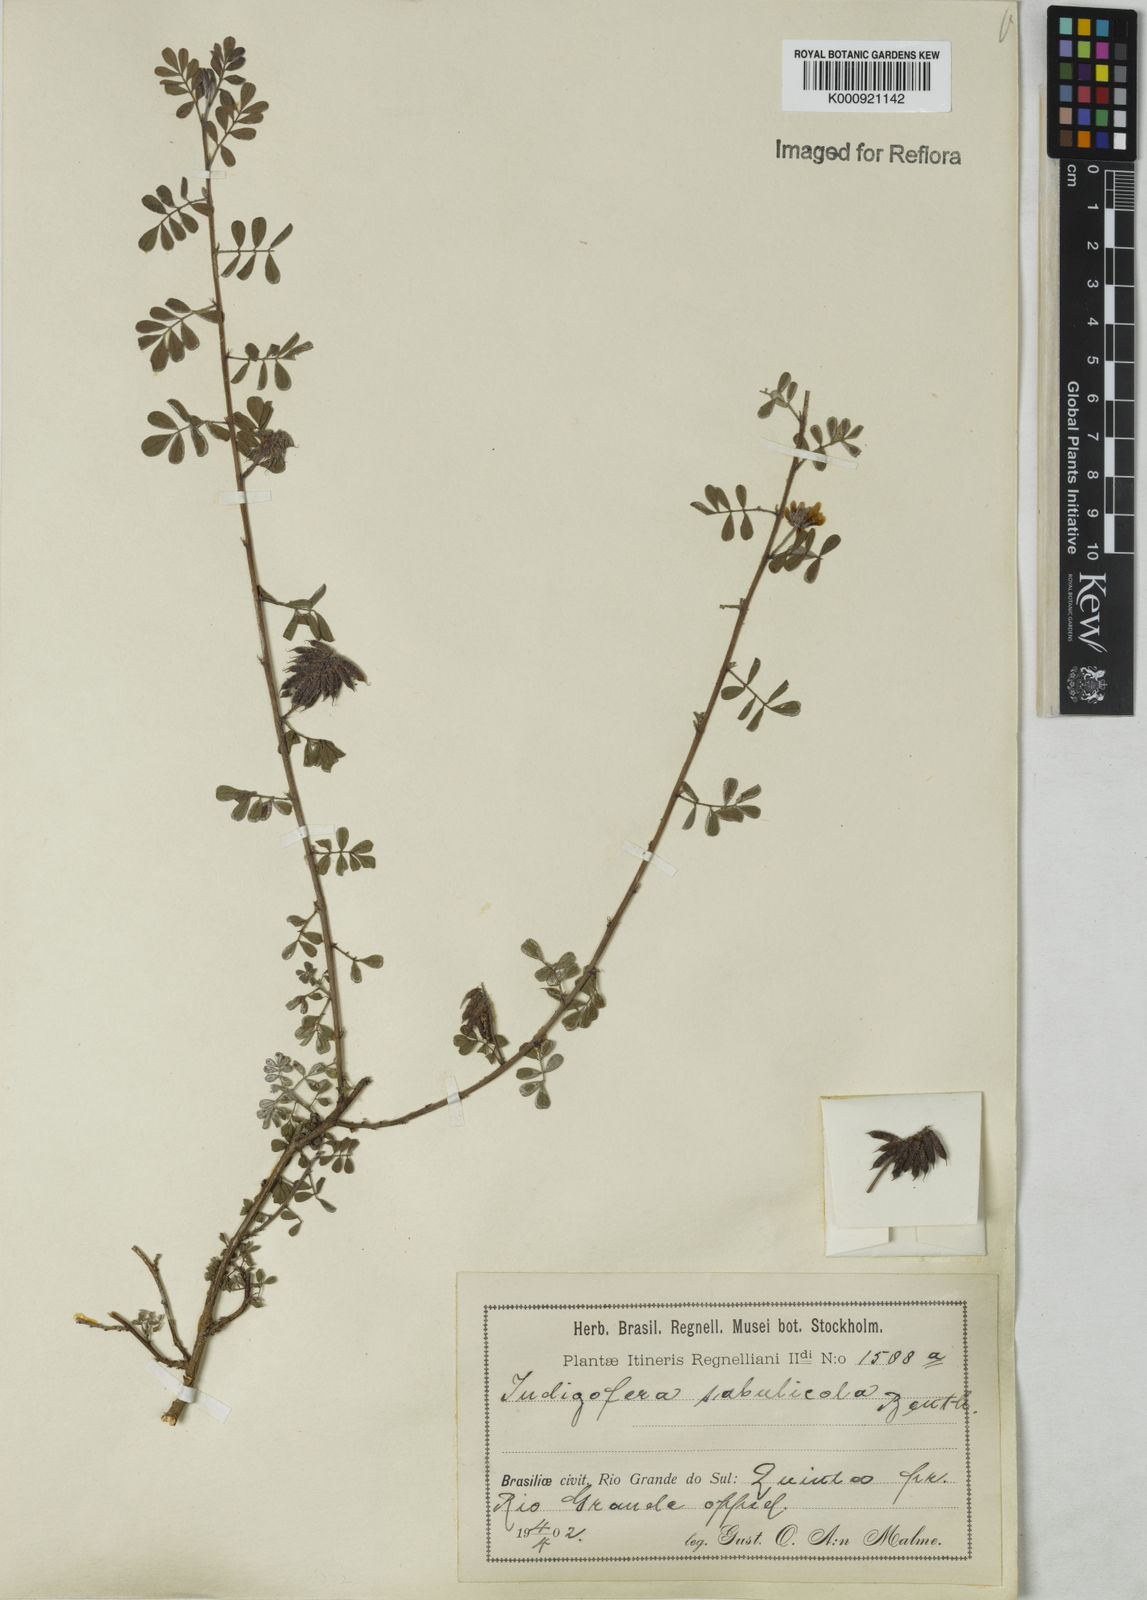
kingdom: Plantae
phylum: Tracheophyta
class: Magnoliopsida
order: Fabales
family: Fabaceae
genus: Indigofera
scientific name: Indigofera microcarpa
